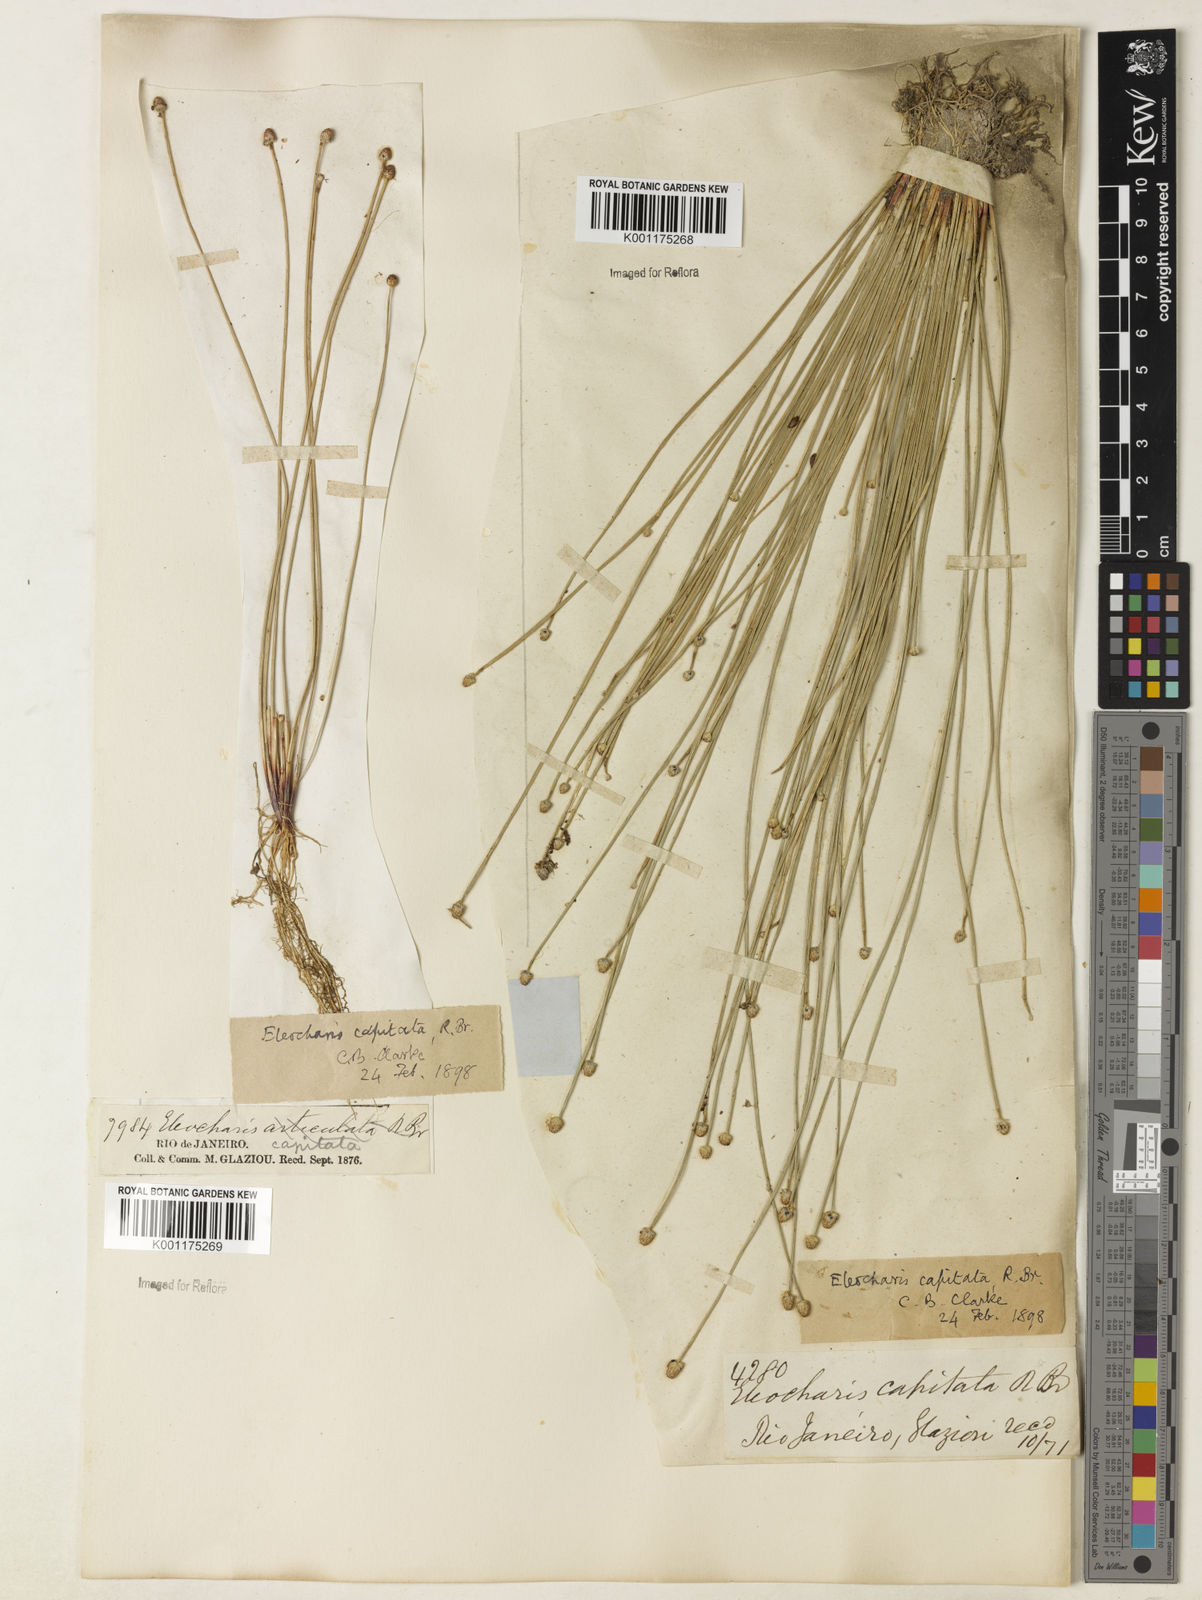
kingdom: Plantae
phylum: Tracheophyta
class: Liliopsida
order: Poales
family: Cyperaceae
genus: Eleocharis
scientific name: Eleocharis geniculata
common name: Canada spikesedge
